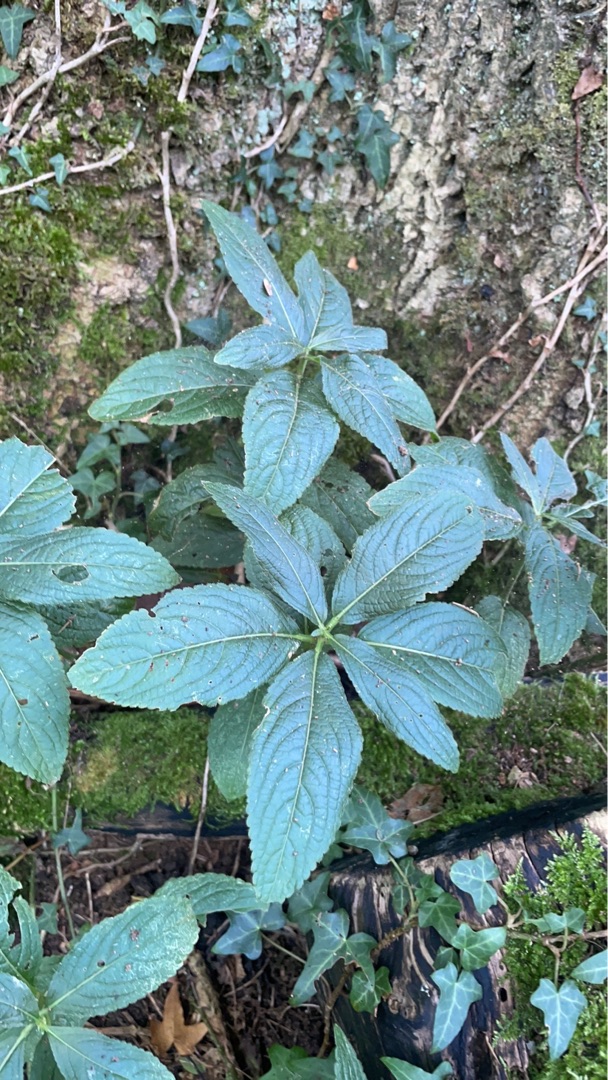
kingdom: Plantae
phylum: Tracheophyta
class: Magnoliopsida
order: Malpighiales
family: Euphorbiaceae
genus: Mercurialis
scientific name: Mercurialis perennis
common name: Almindelig bingelurt
